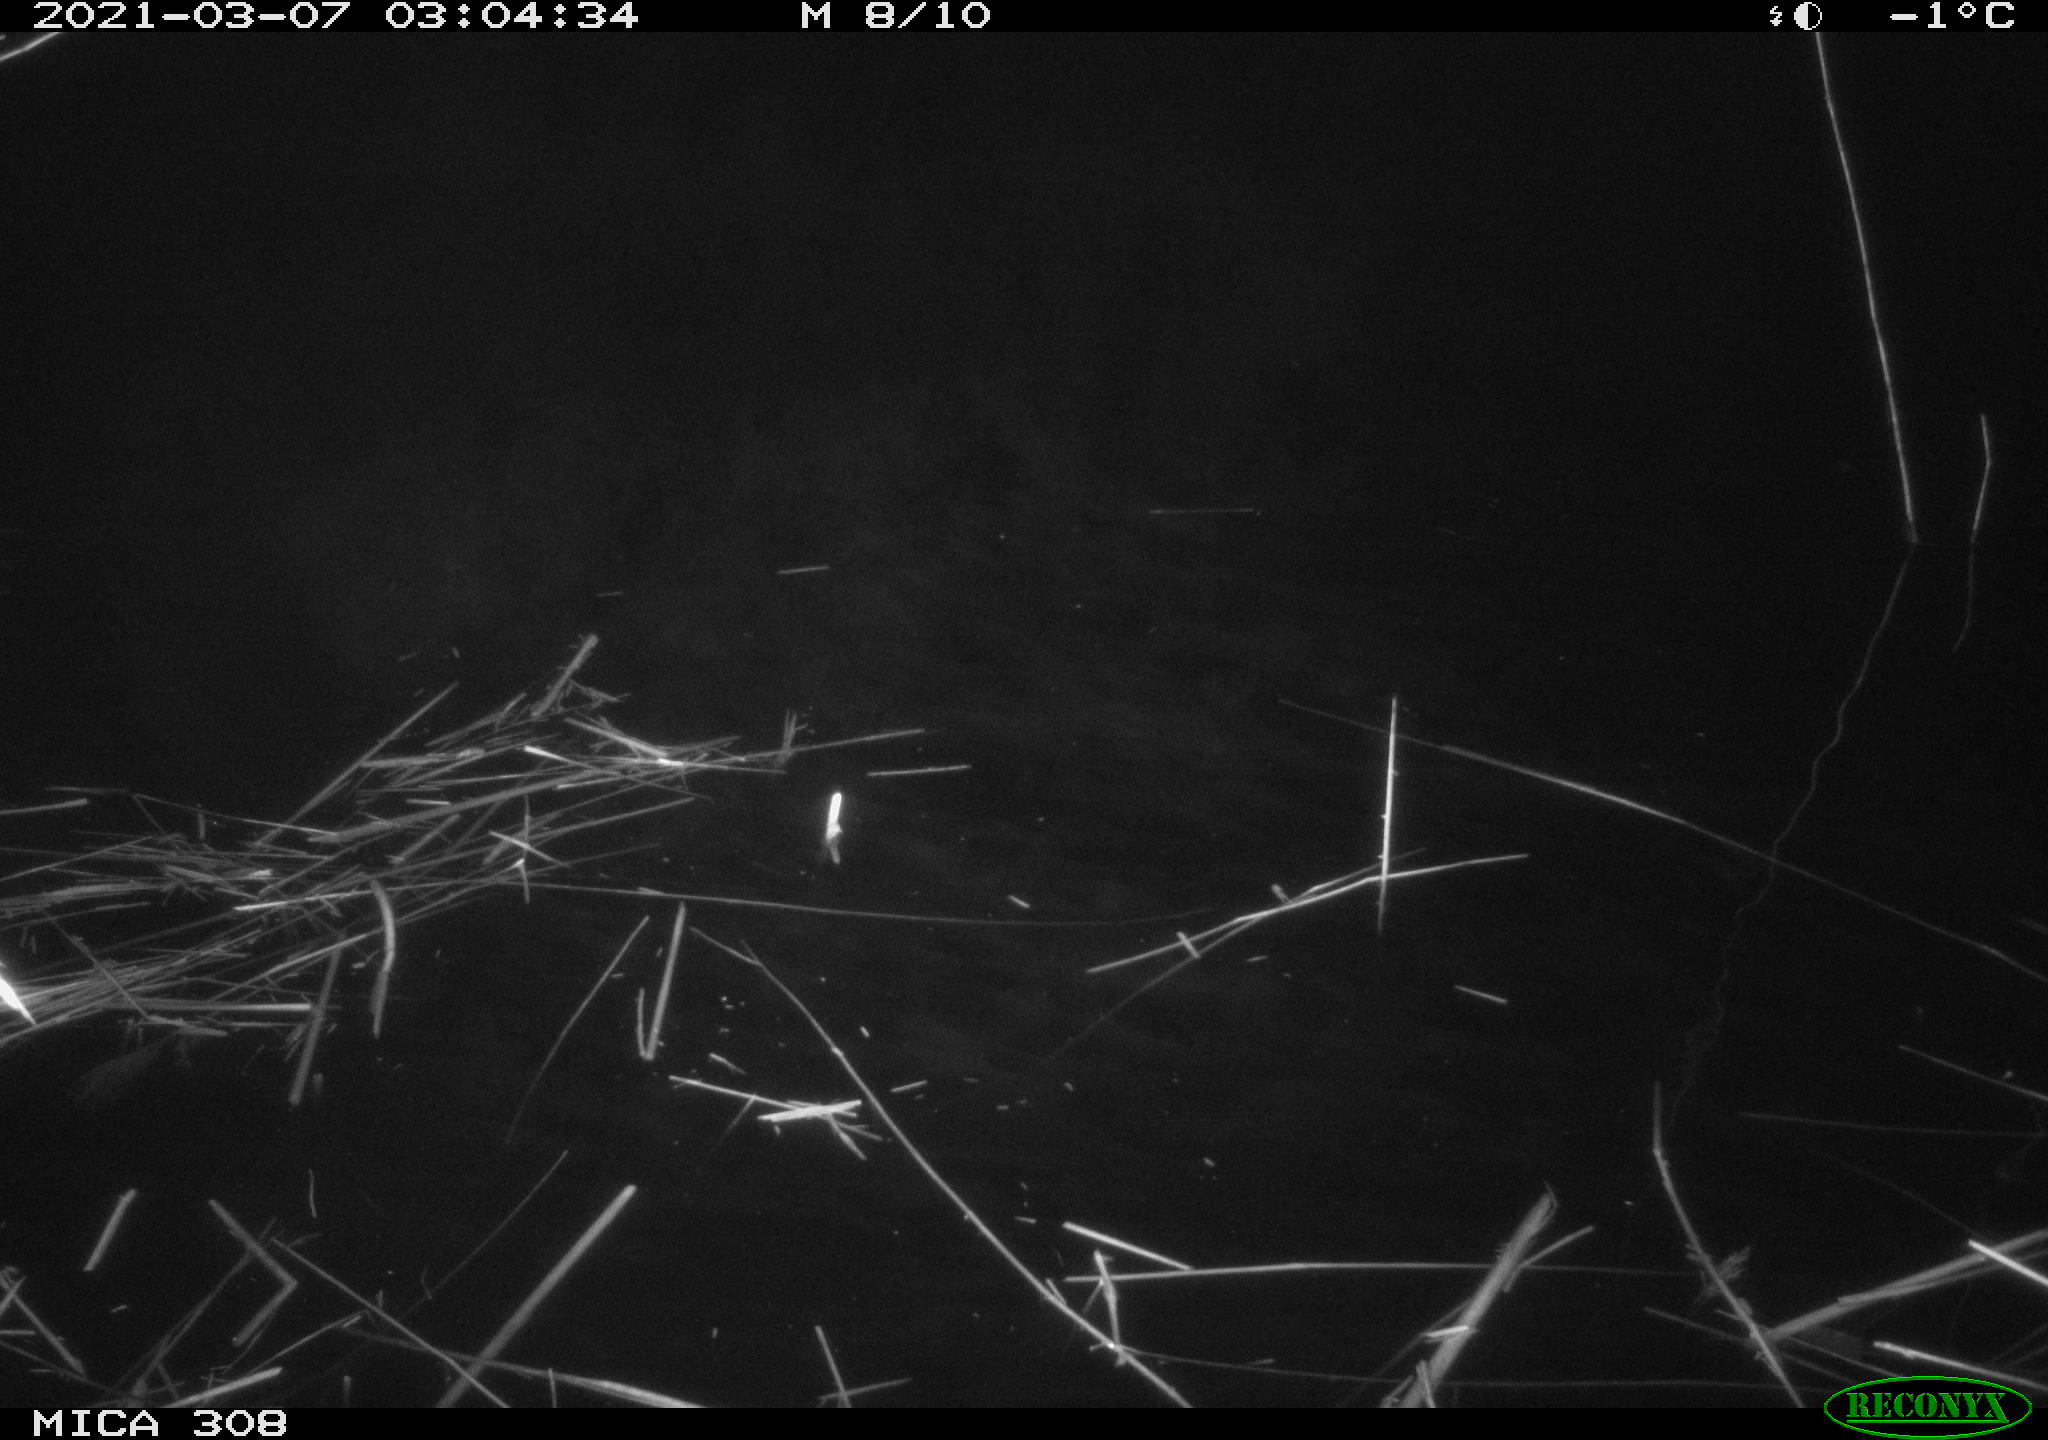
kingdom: Animalia
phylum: Chordata
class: Mammalia
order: Rodentia
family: Cricetidae
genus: Ondatra
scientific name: Ondatra zibethicus
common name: Muskrat
